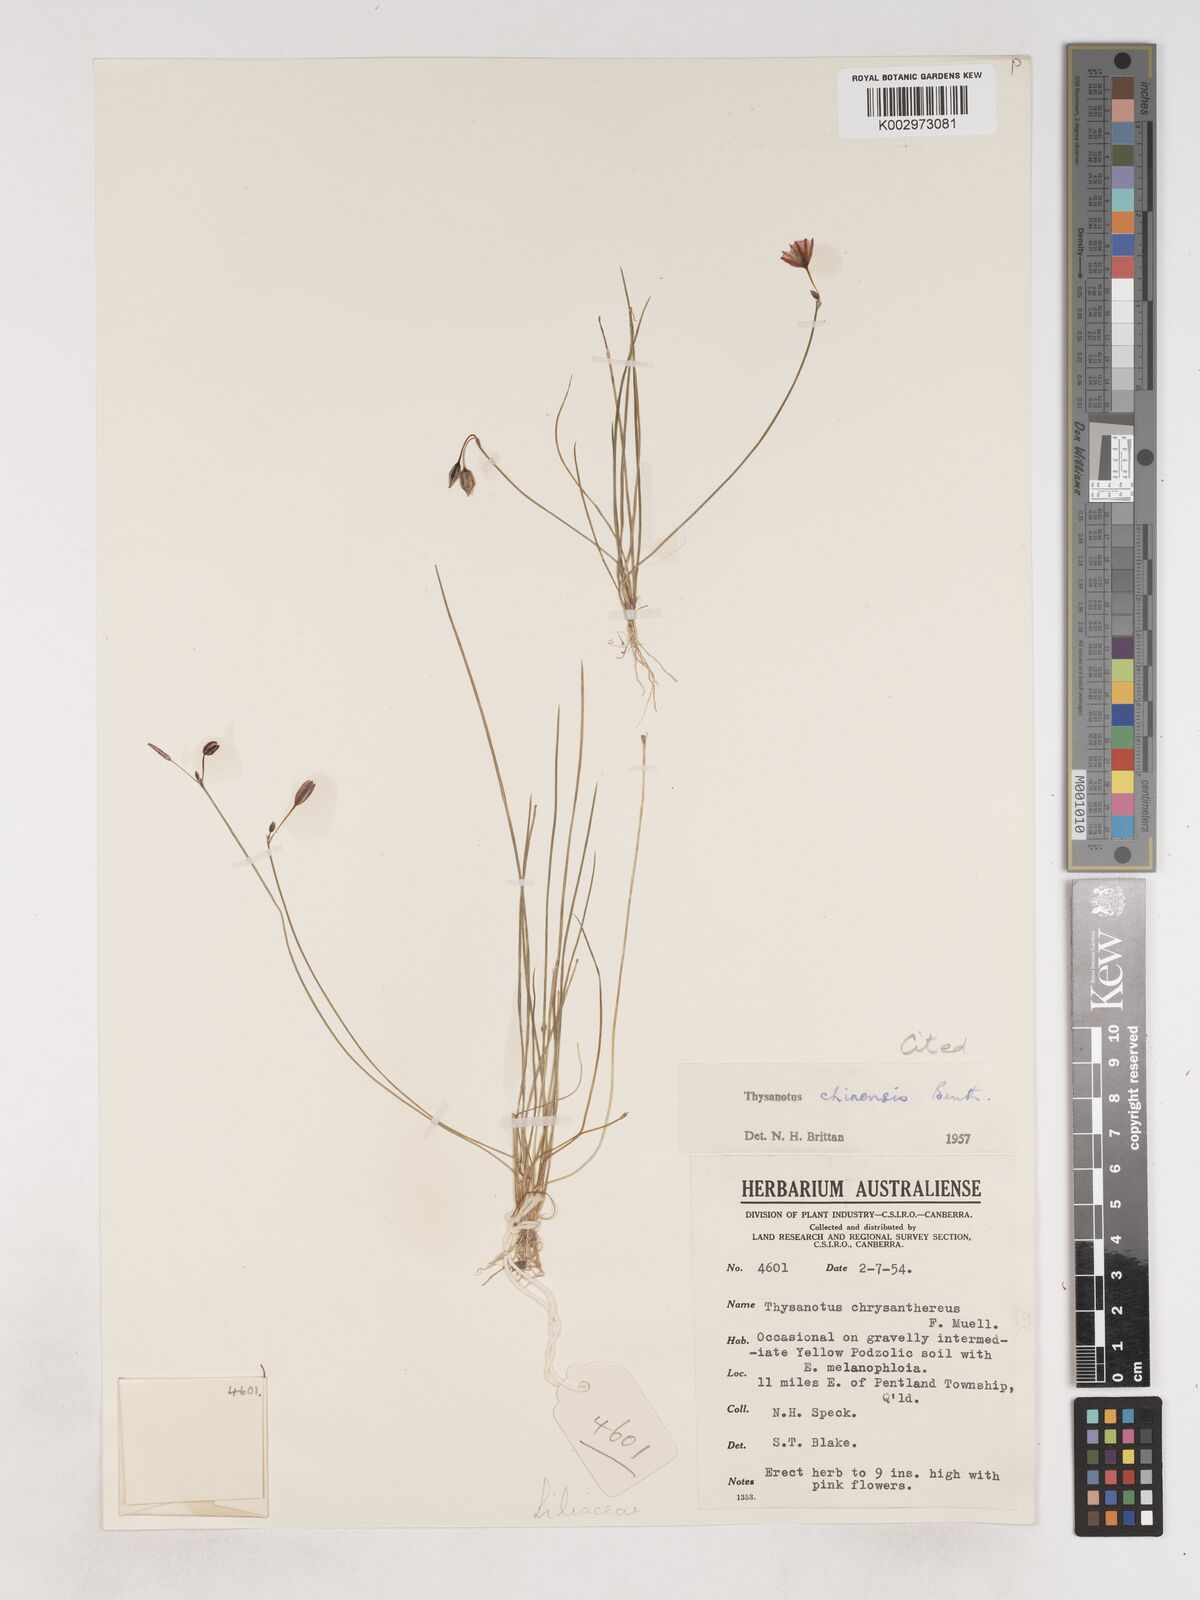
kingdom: Plantae
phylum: Tracheophyta
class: Liliopsida
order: Asparagales
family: Asparagaceae
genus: Thysanotus
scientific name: Thysanotus chinensis
